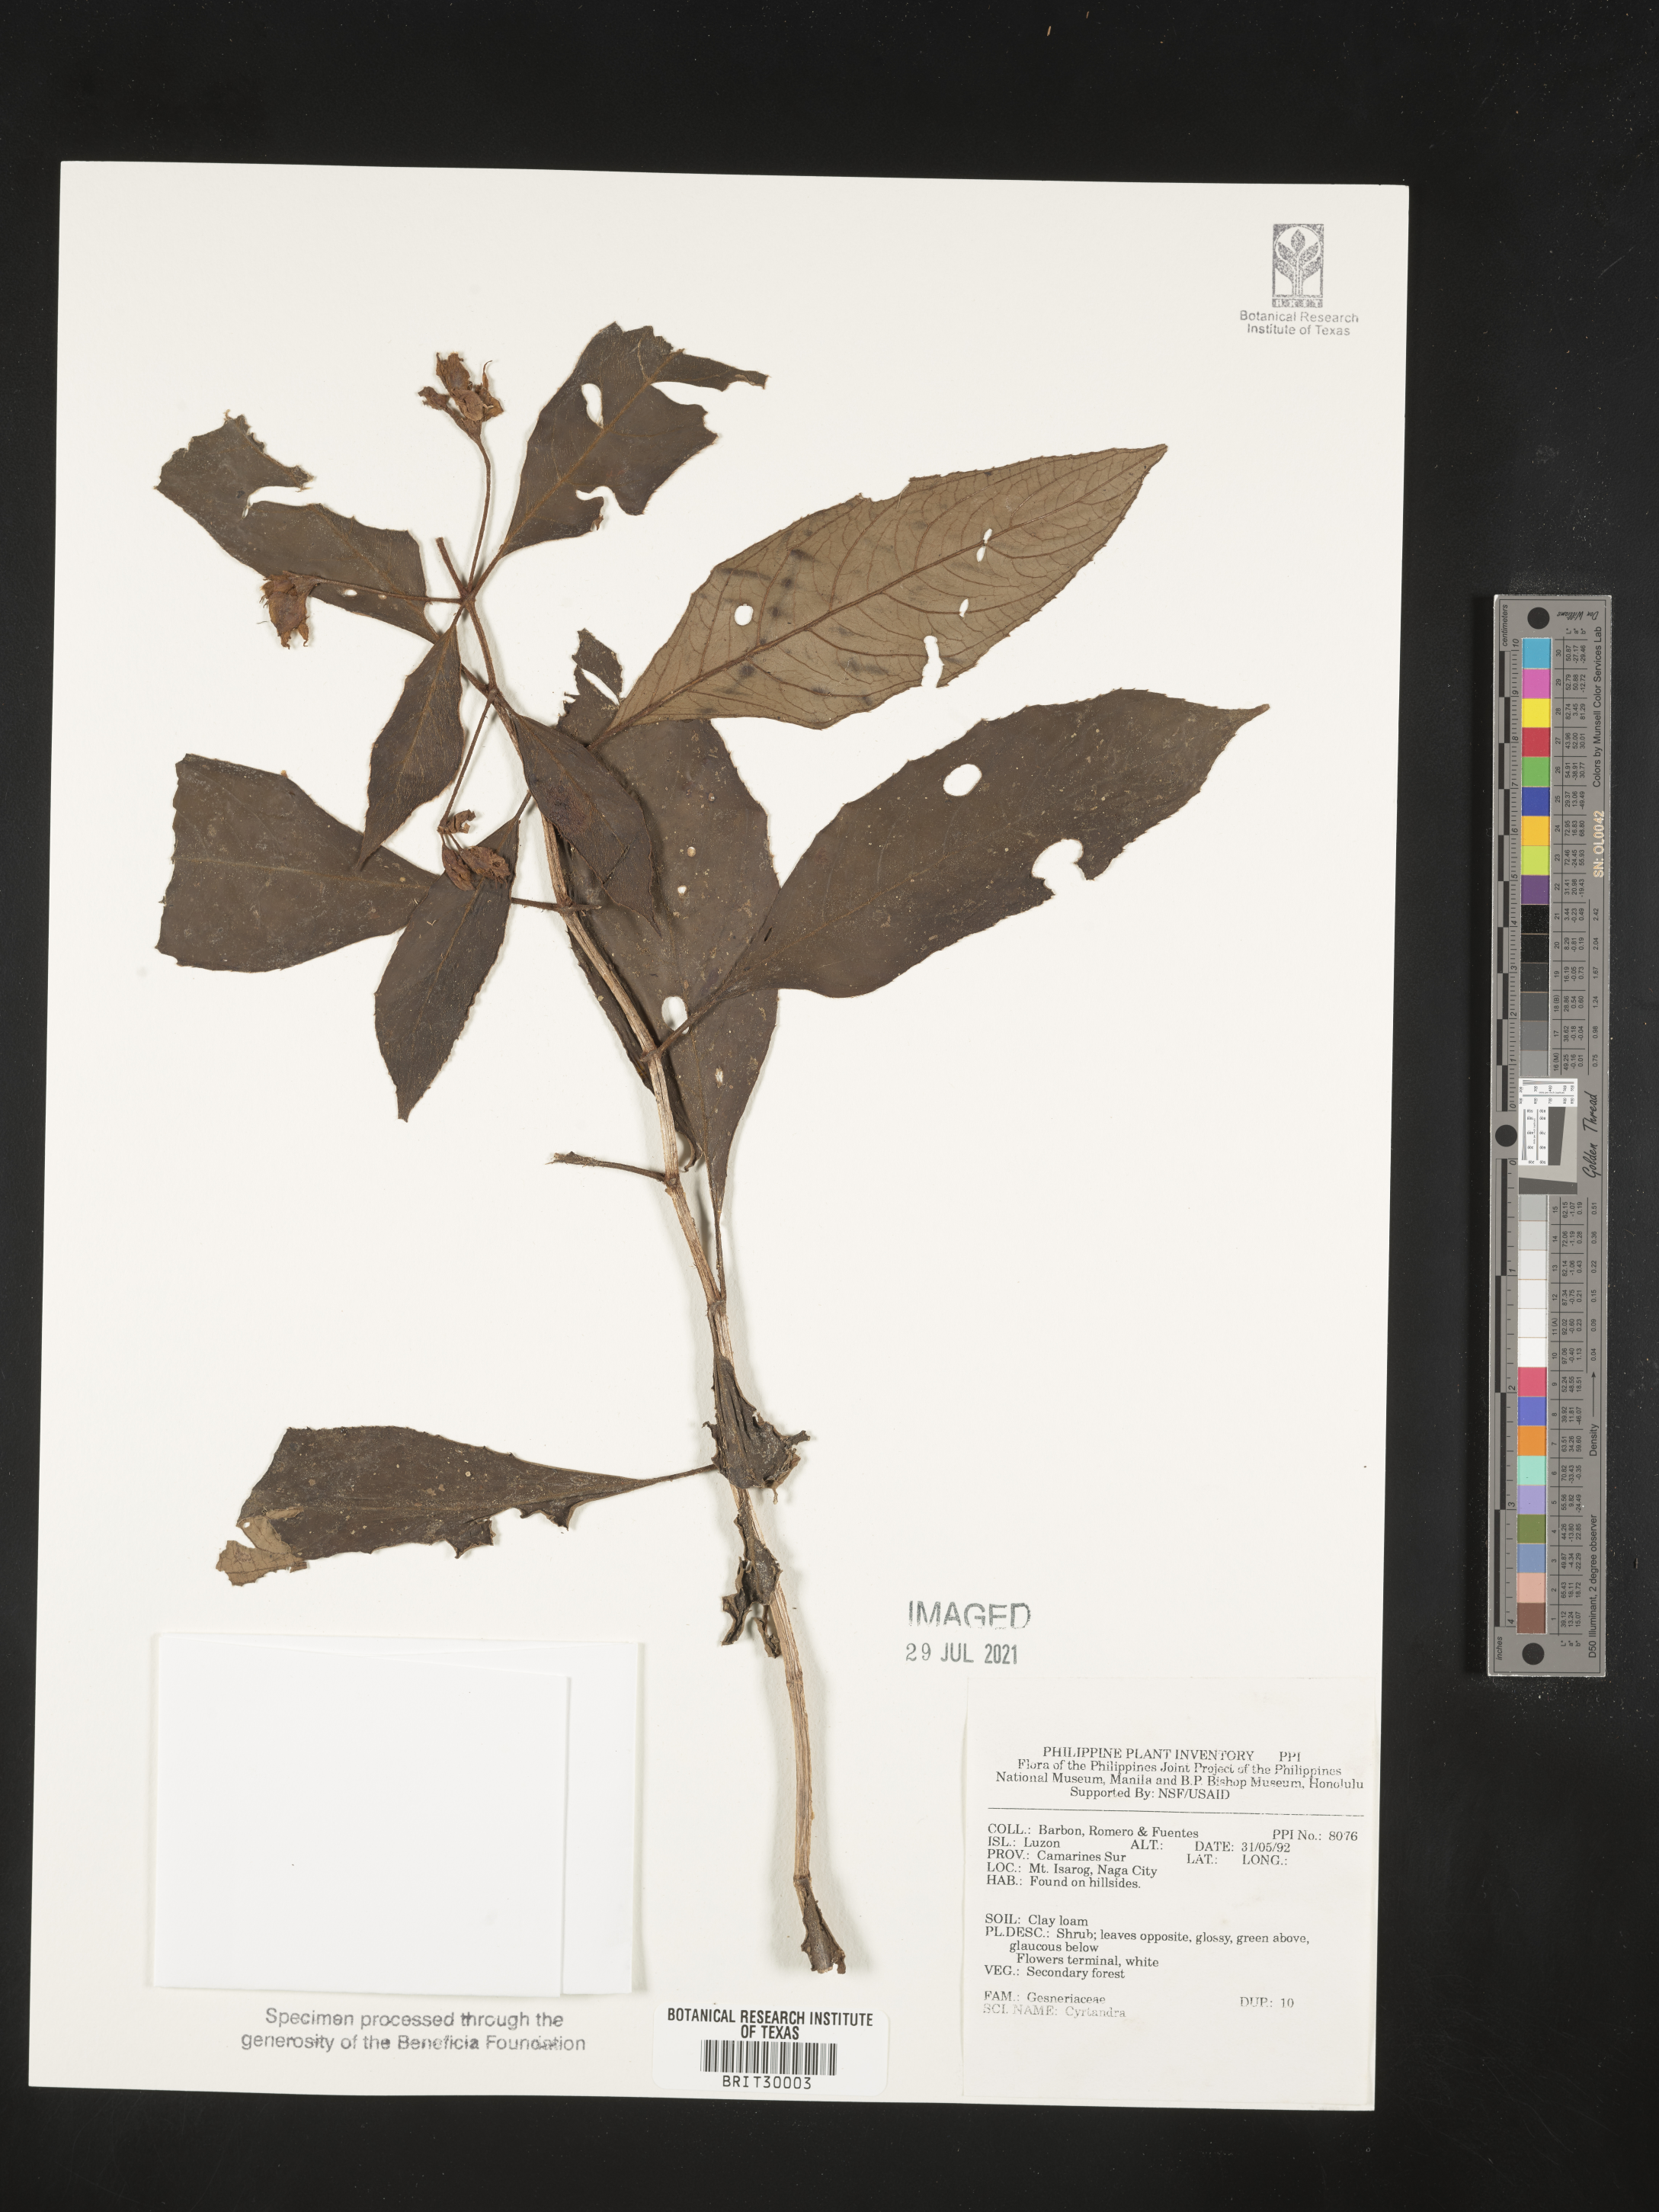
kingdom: Plantae
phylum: Tracheophyta
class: Magnoliopsida
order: Lamiales
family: Gesneriaceae
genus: Cyrtandra
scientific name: Cyrtandra
